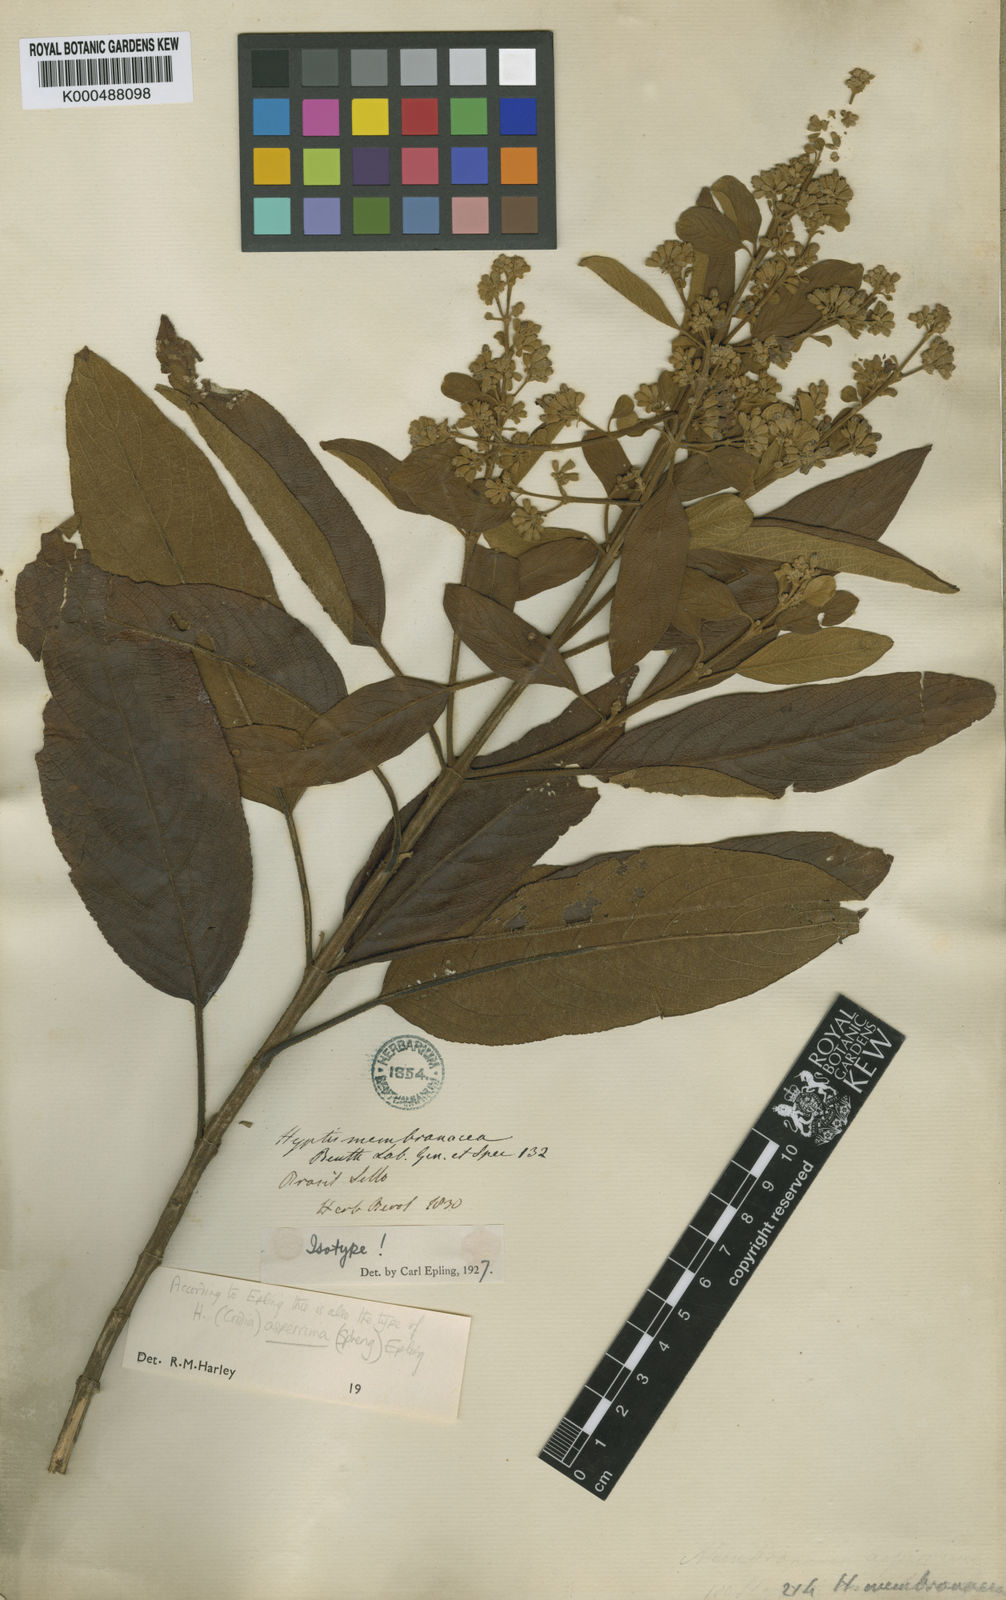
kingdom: Plantae
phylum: Tracheophyta
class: Magnoliopsida
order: Lamiales
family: Lamiaceae
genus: Hyptidendron
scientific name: Hyptidendron asperrimum
